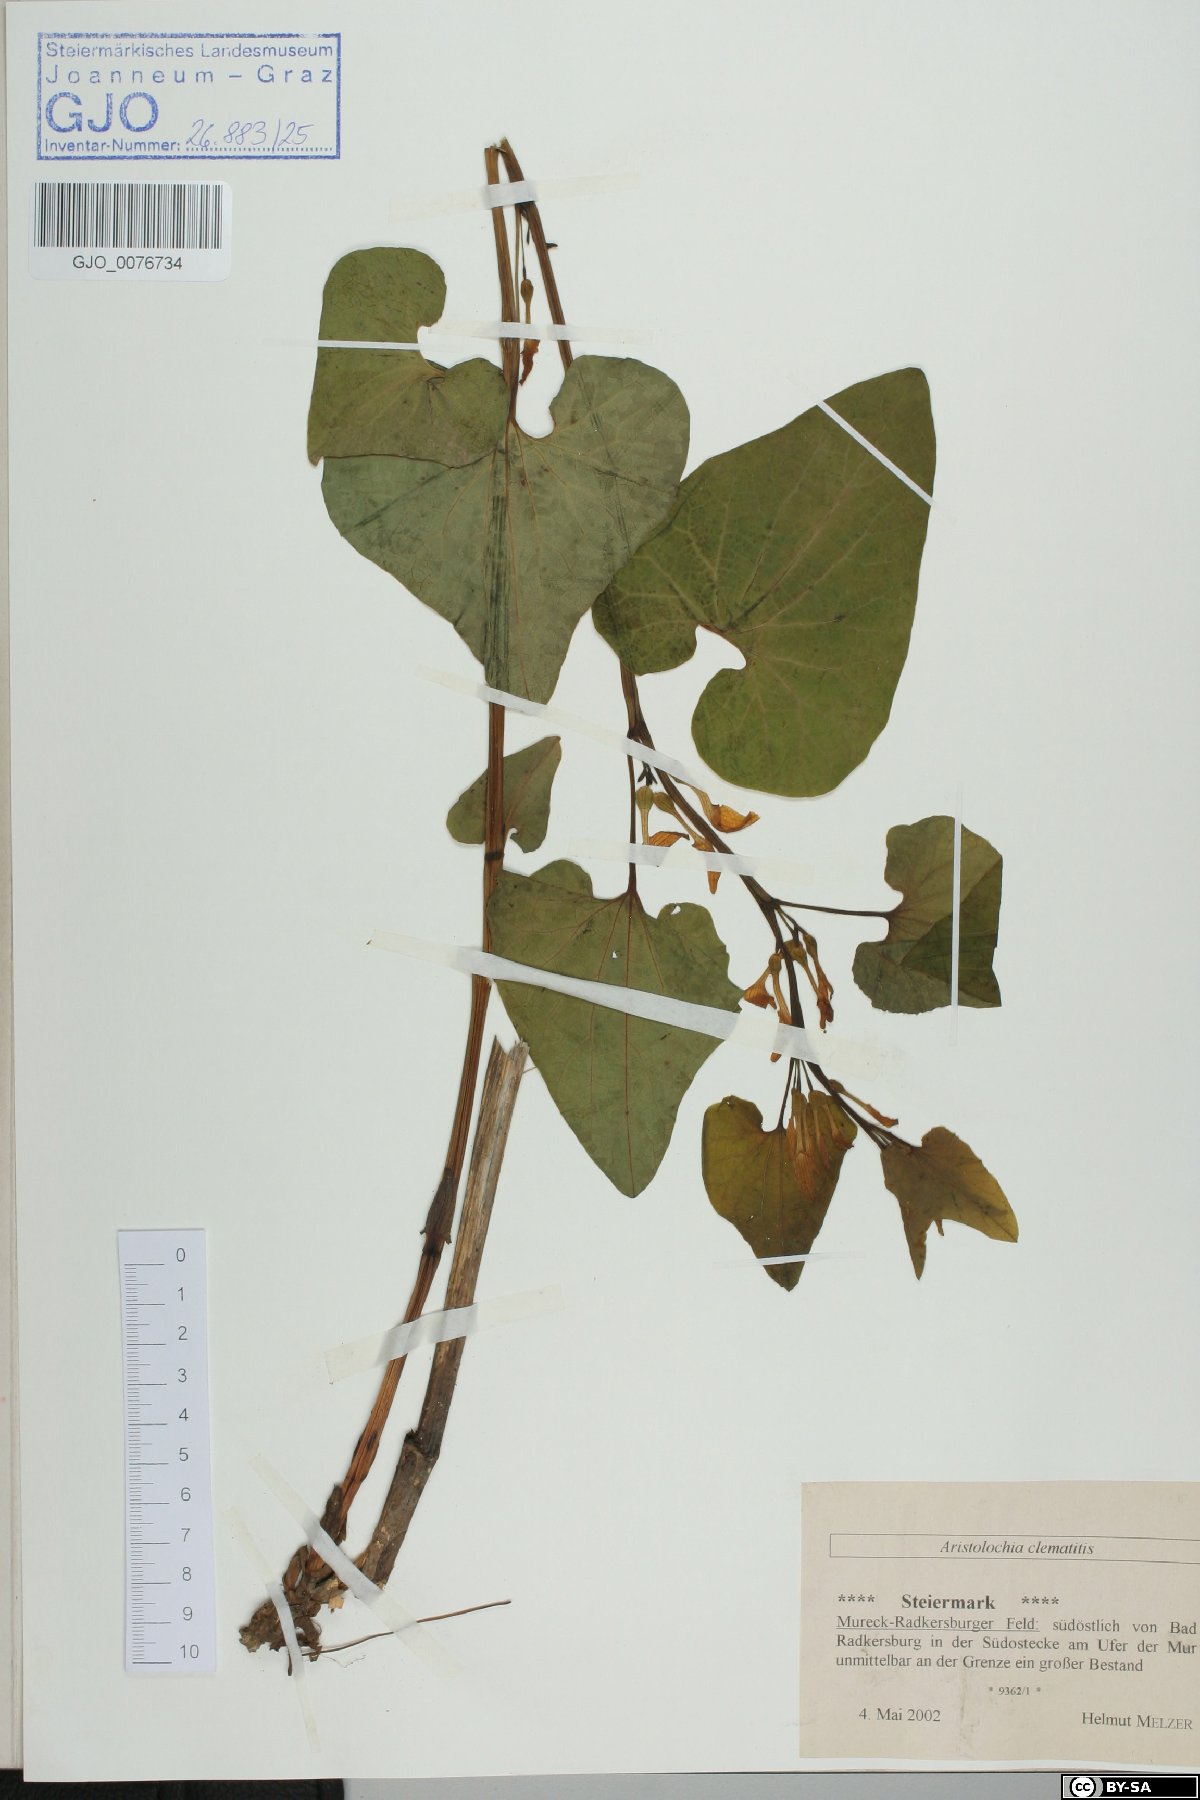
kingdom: Plantae
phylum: Tracheophyta
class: Magnoliopsida
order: Piperales
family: Aristolochiaceae
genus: Aristolochia
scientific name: Aristolochia clematitis
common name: Birthwort
